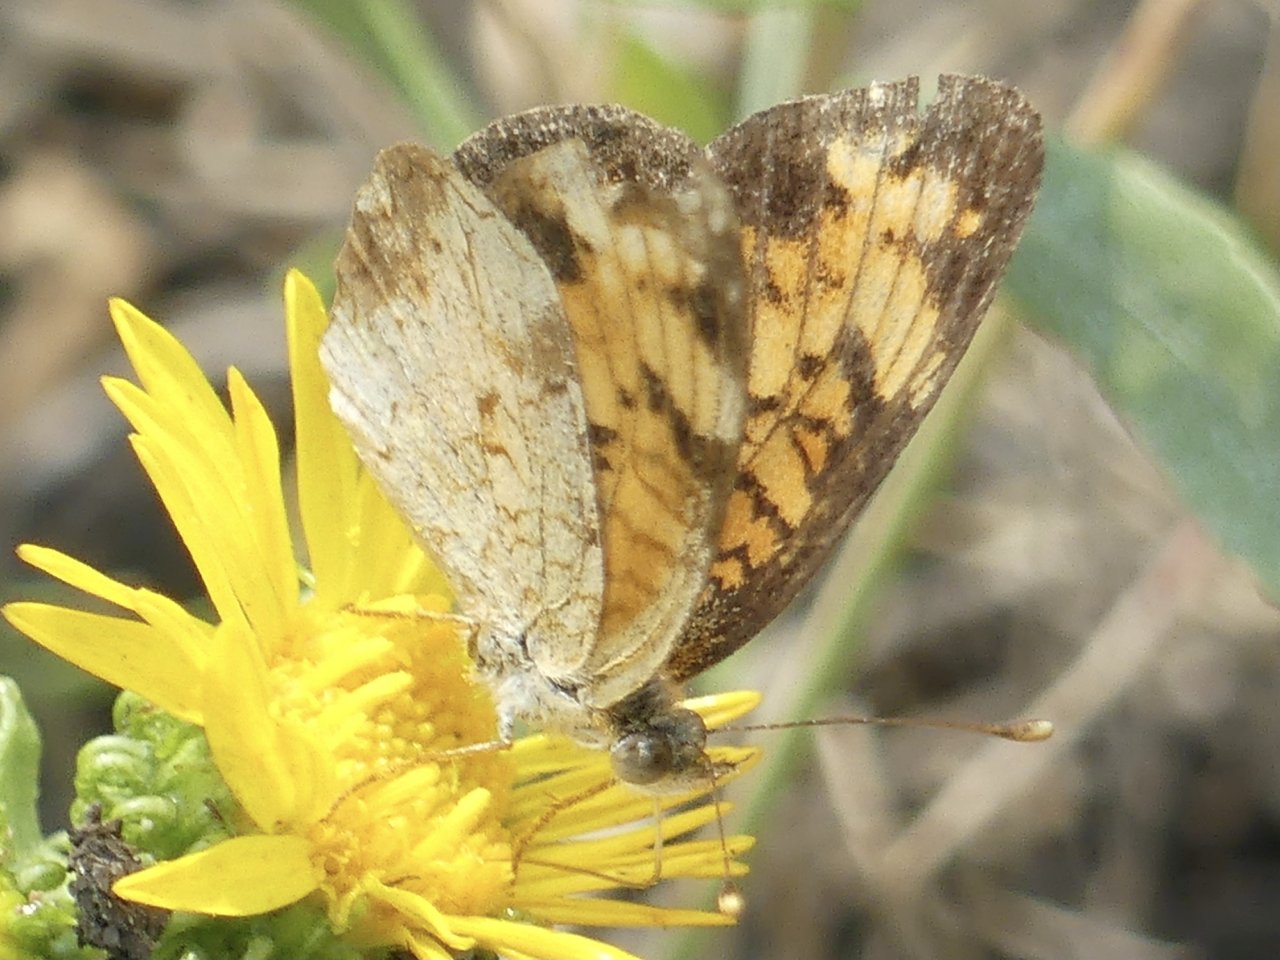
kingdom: Animalia
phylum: Arthropoda
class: Insecta
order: Lepidoptera
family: Nymphalidae
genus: Phyciodes
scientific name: Phyciodes tharos
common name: Northern Crescent
